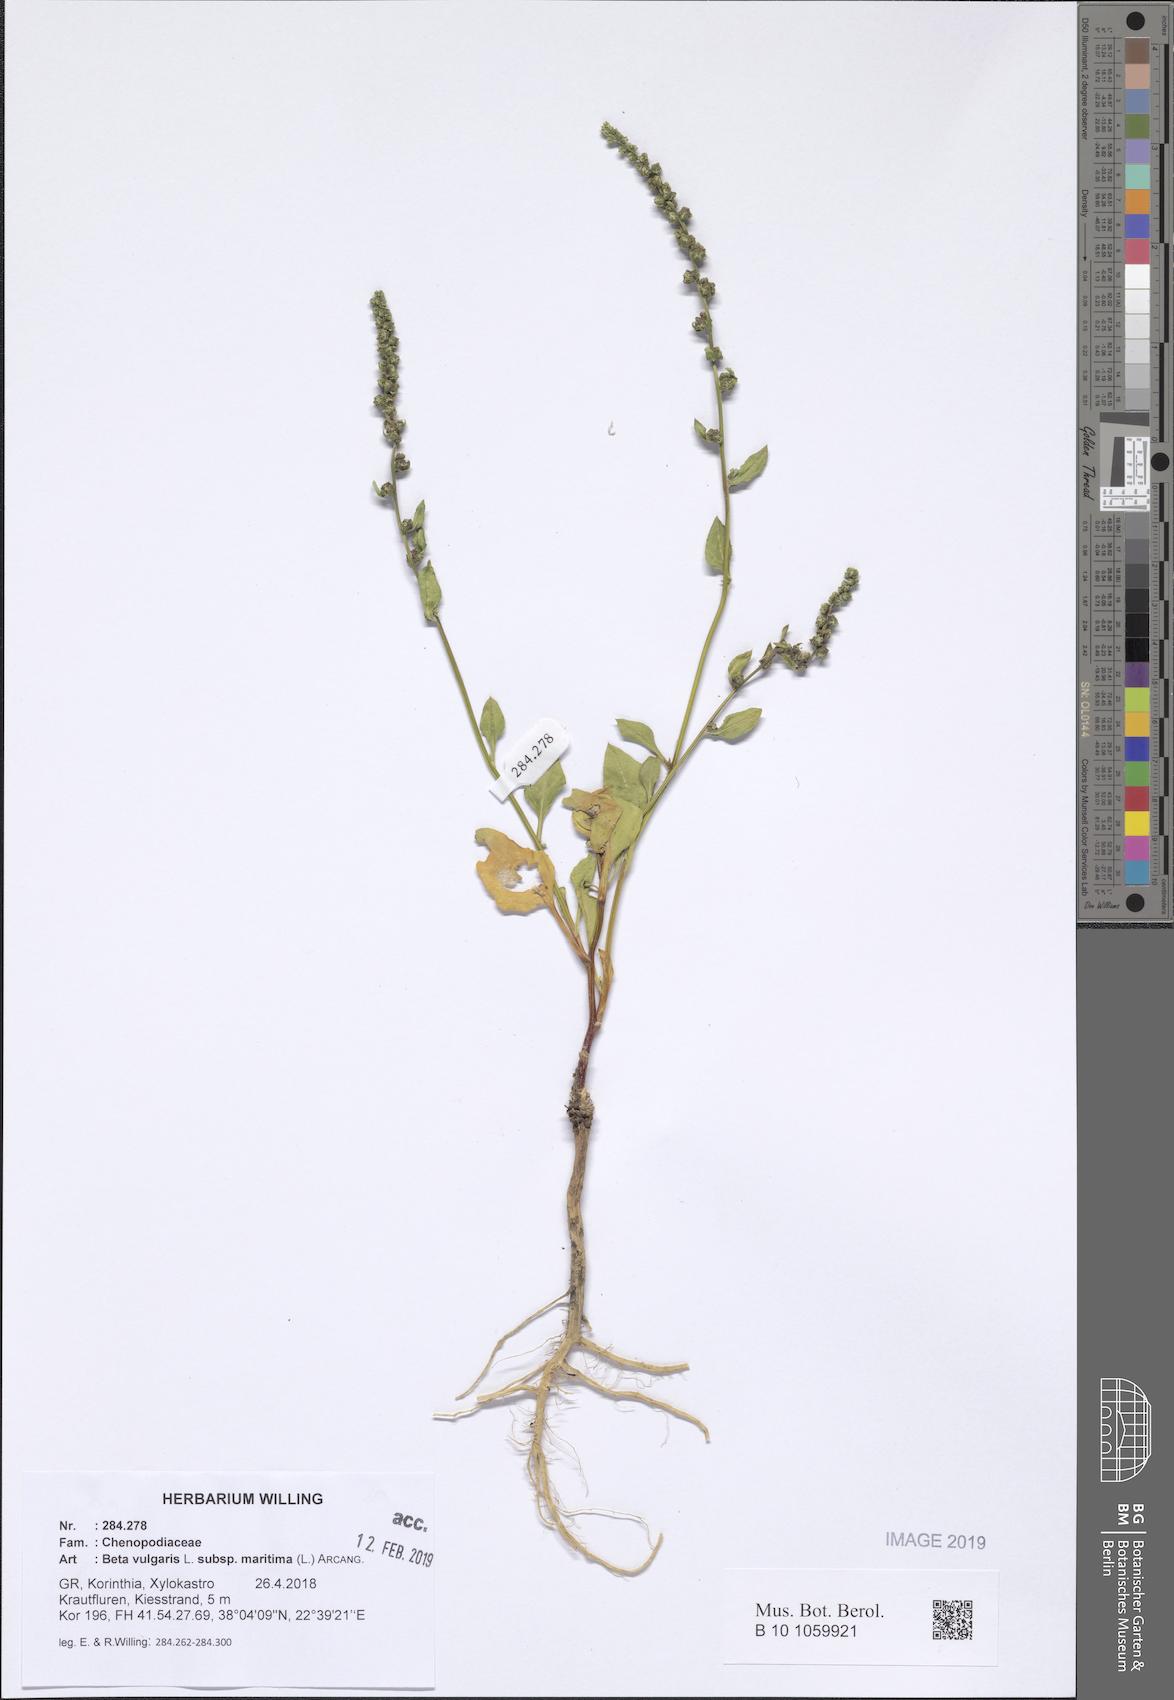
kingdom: Plantae
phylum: Tracheophyta
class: Magnoliopsida
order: Caryophyllales
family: Amaranthaceae
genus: Beta
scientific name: Beta maritima
